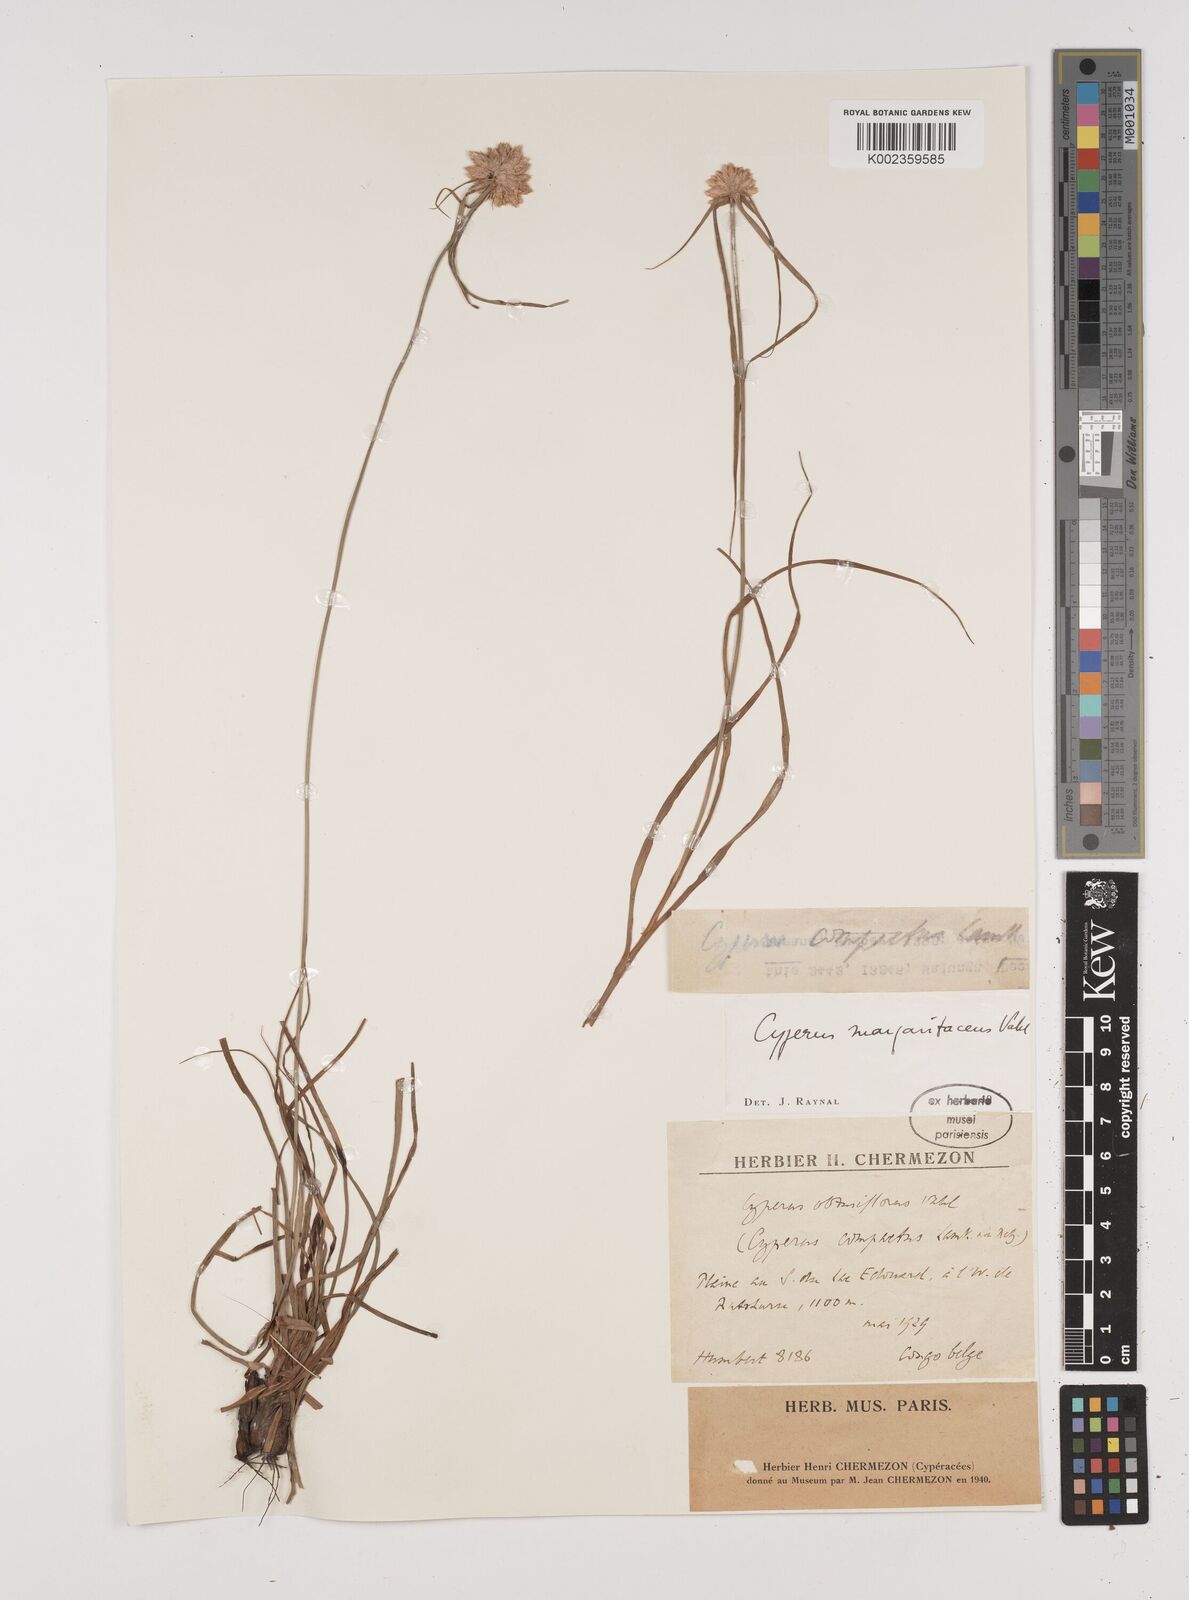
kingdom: Plantae
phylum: Tracheophyta
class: Liliopsida
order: Poales
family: Cyperaceae
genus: Cyperus
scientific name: Cyperus niveus
